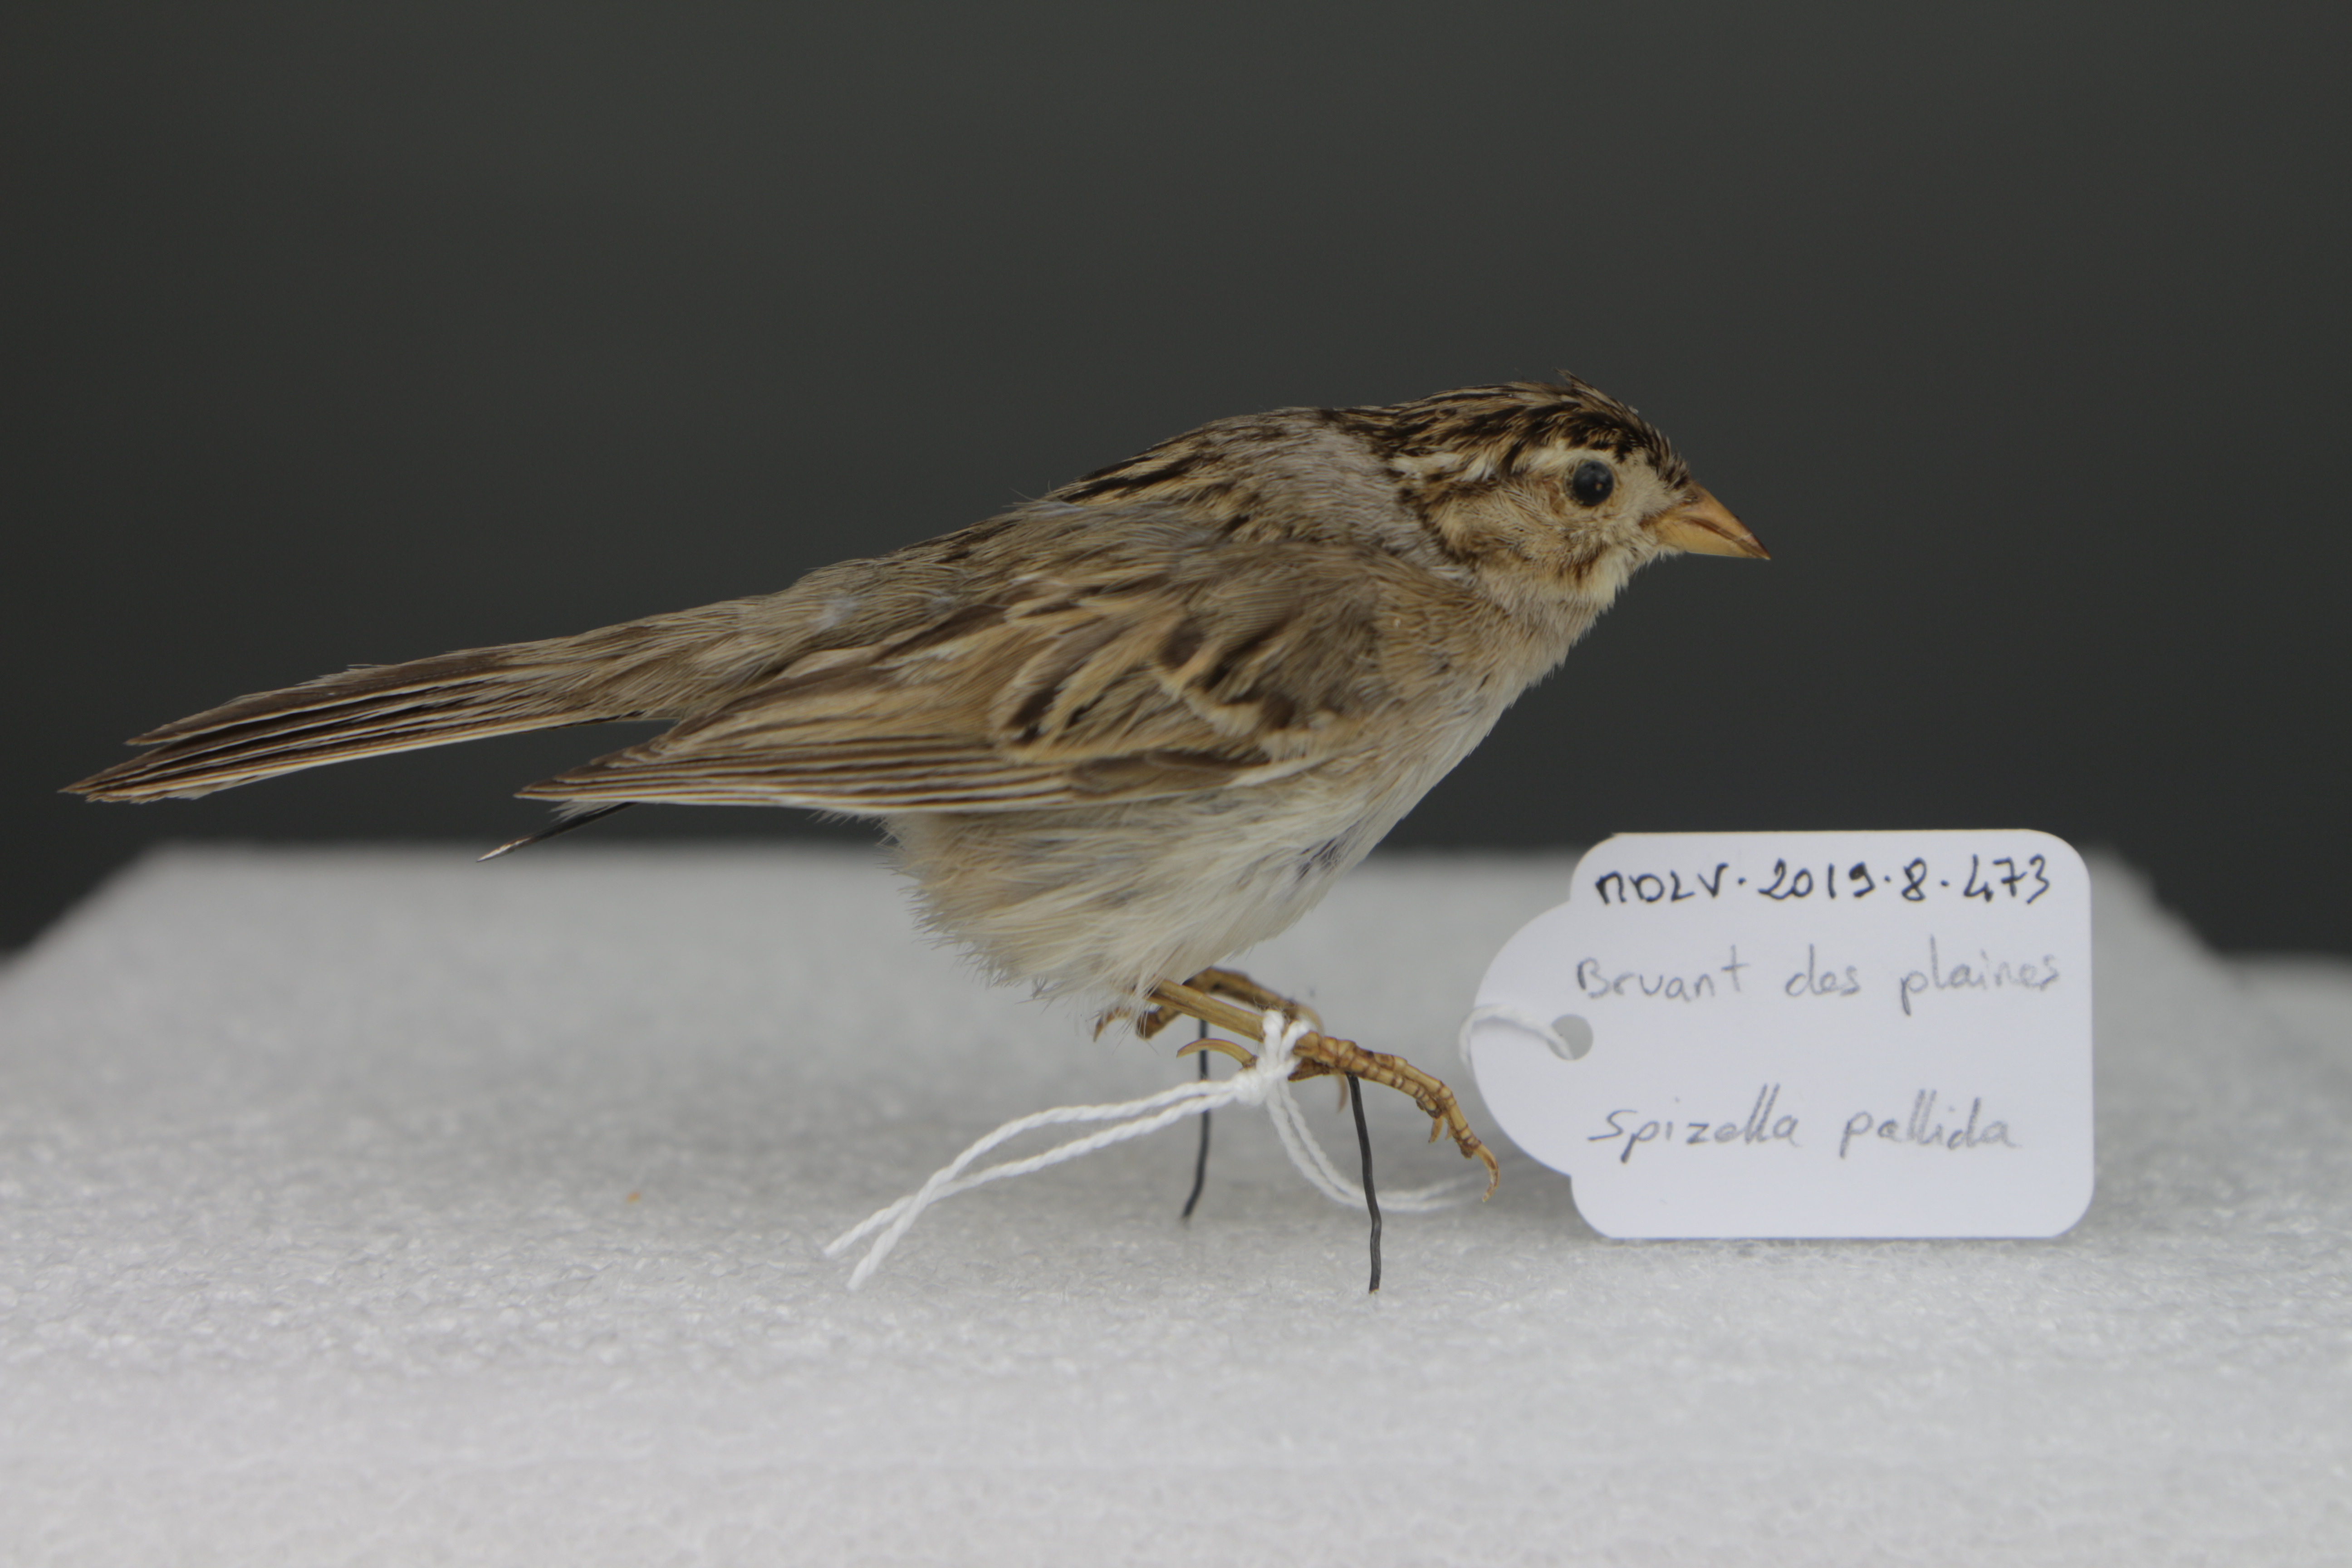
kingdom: Animalia
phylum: Chordata
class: Aves
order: Passeriformes
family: Passerellidae
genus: Spizella
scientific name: Spizella pallida
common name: Clay-colored sparrow
